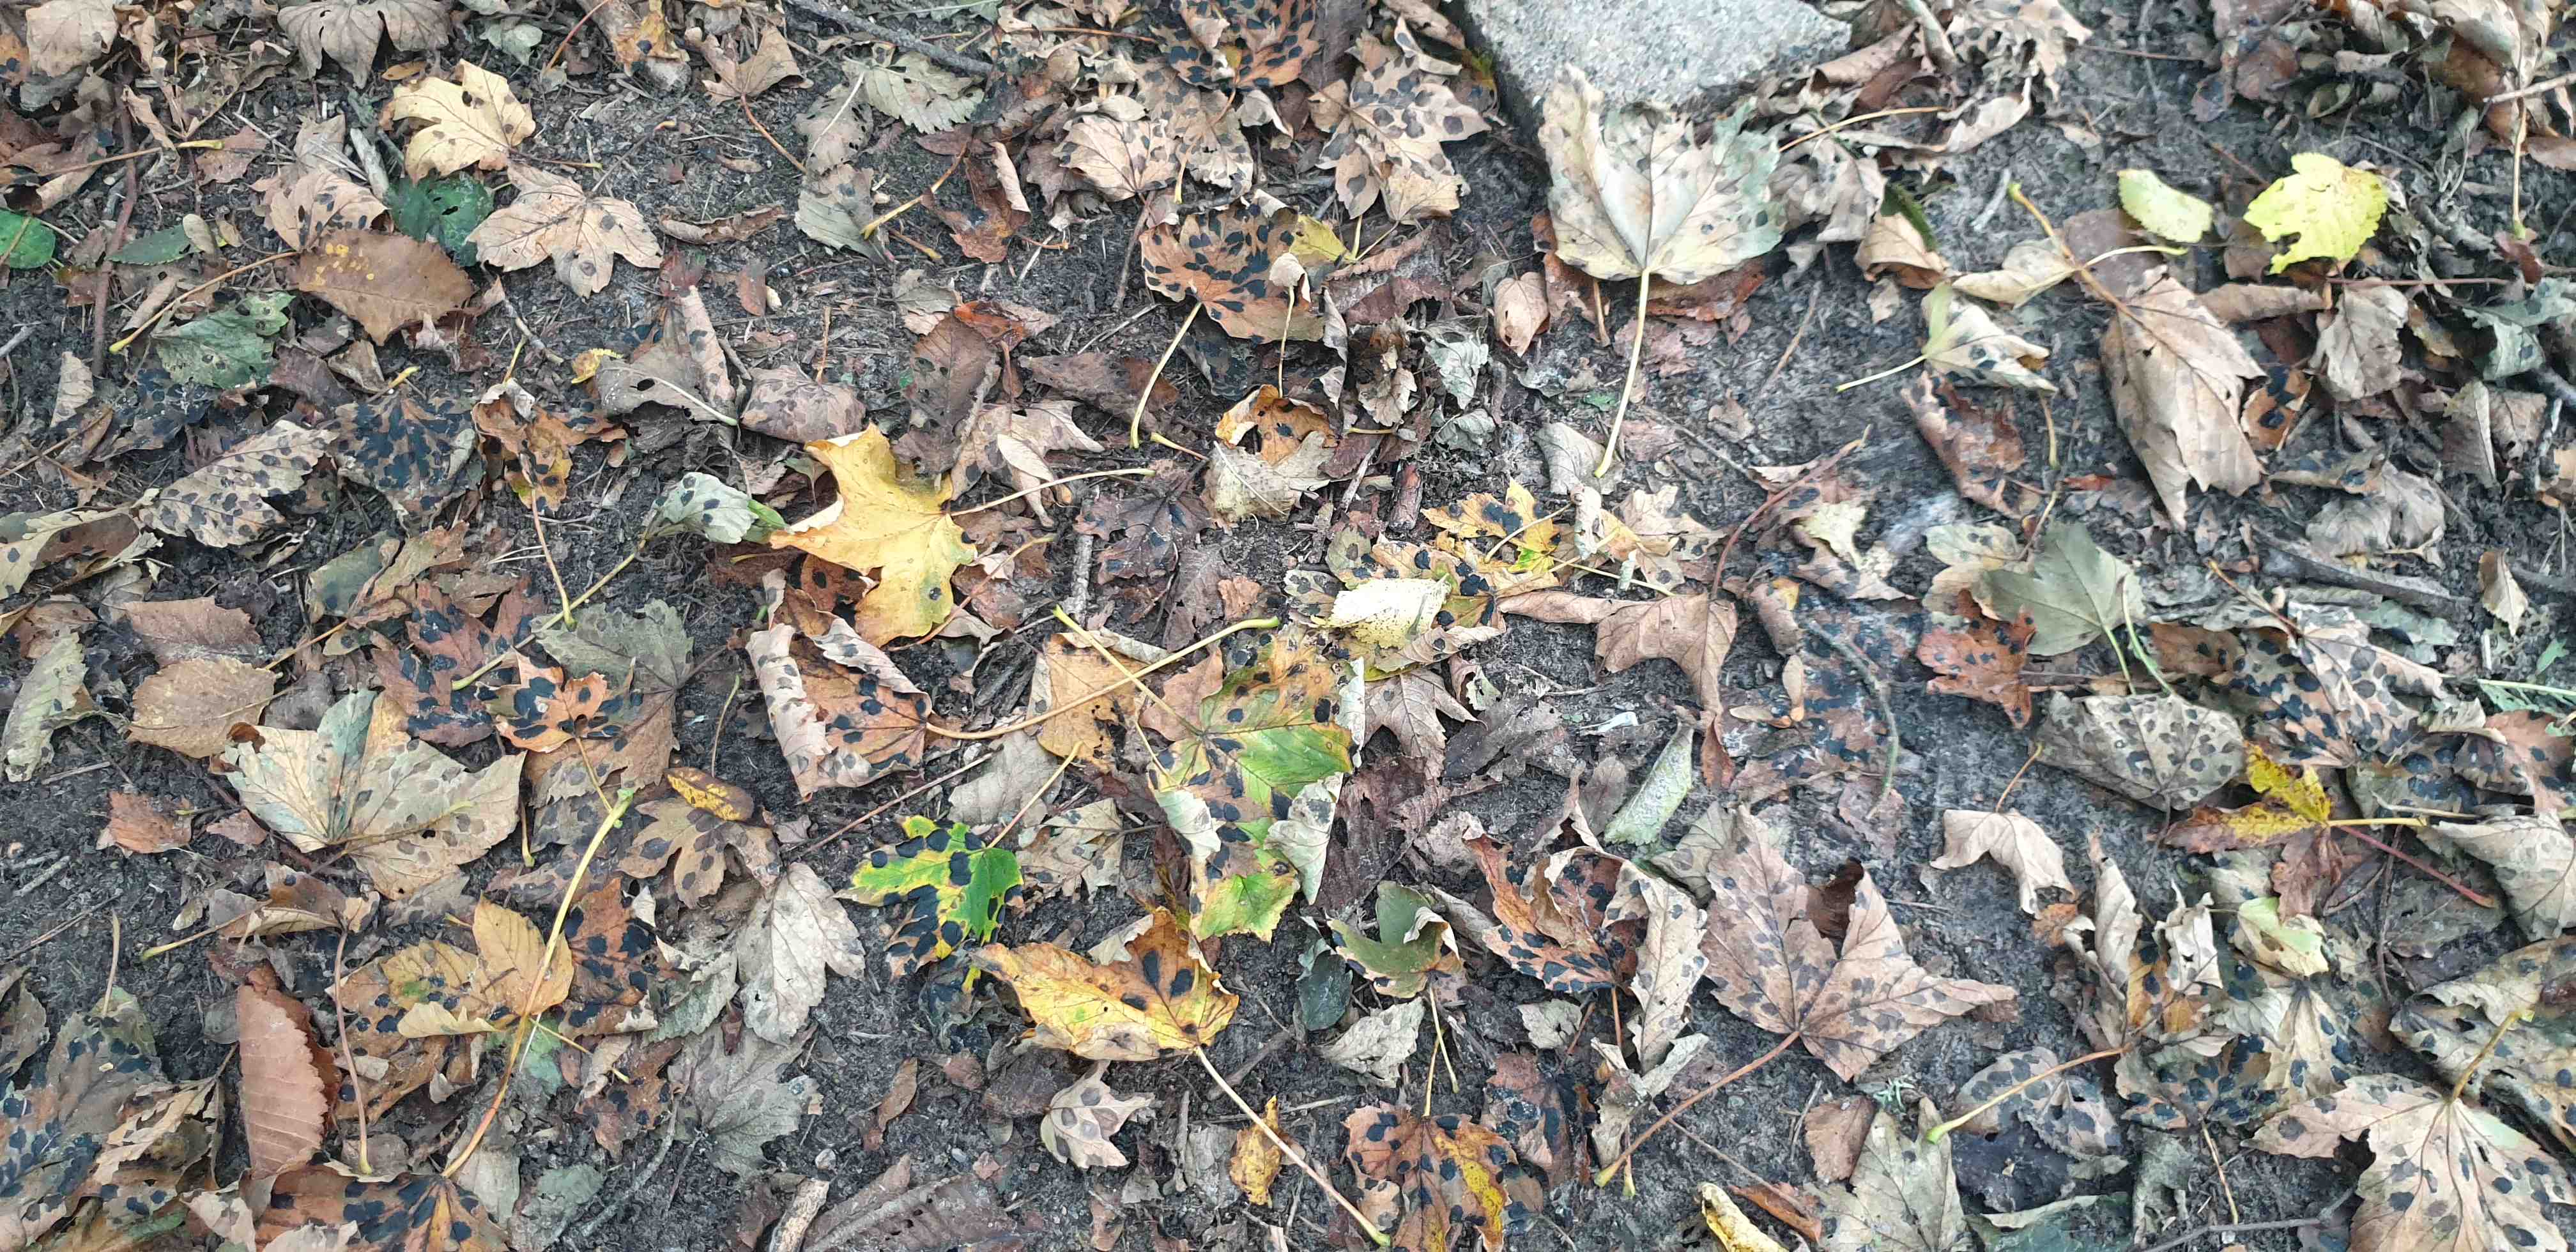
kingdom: Fungi
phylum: Ascomycota
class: Leotiomycetes
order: Rhytismatales
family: Rhytismataceae
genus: Rhytisma
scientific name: Rhytisma acerinum
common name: ahorn-rynkeplet
